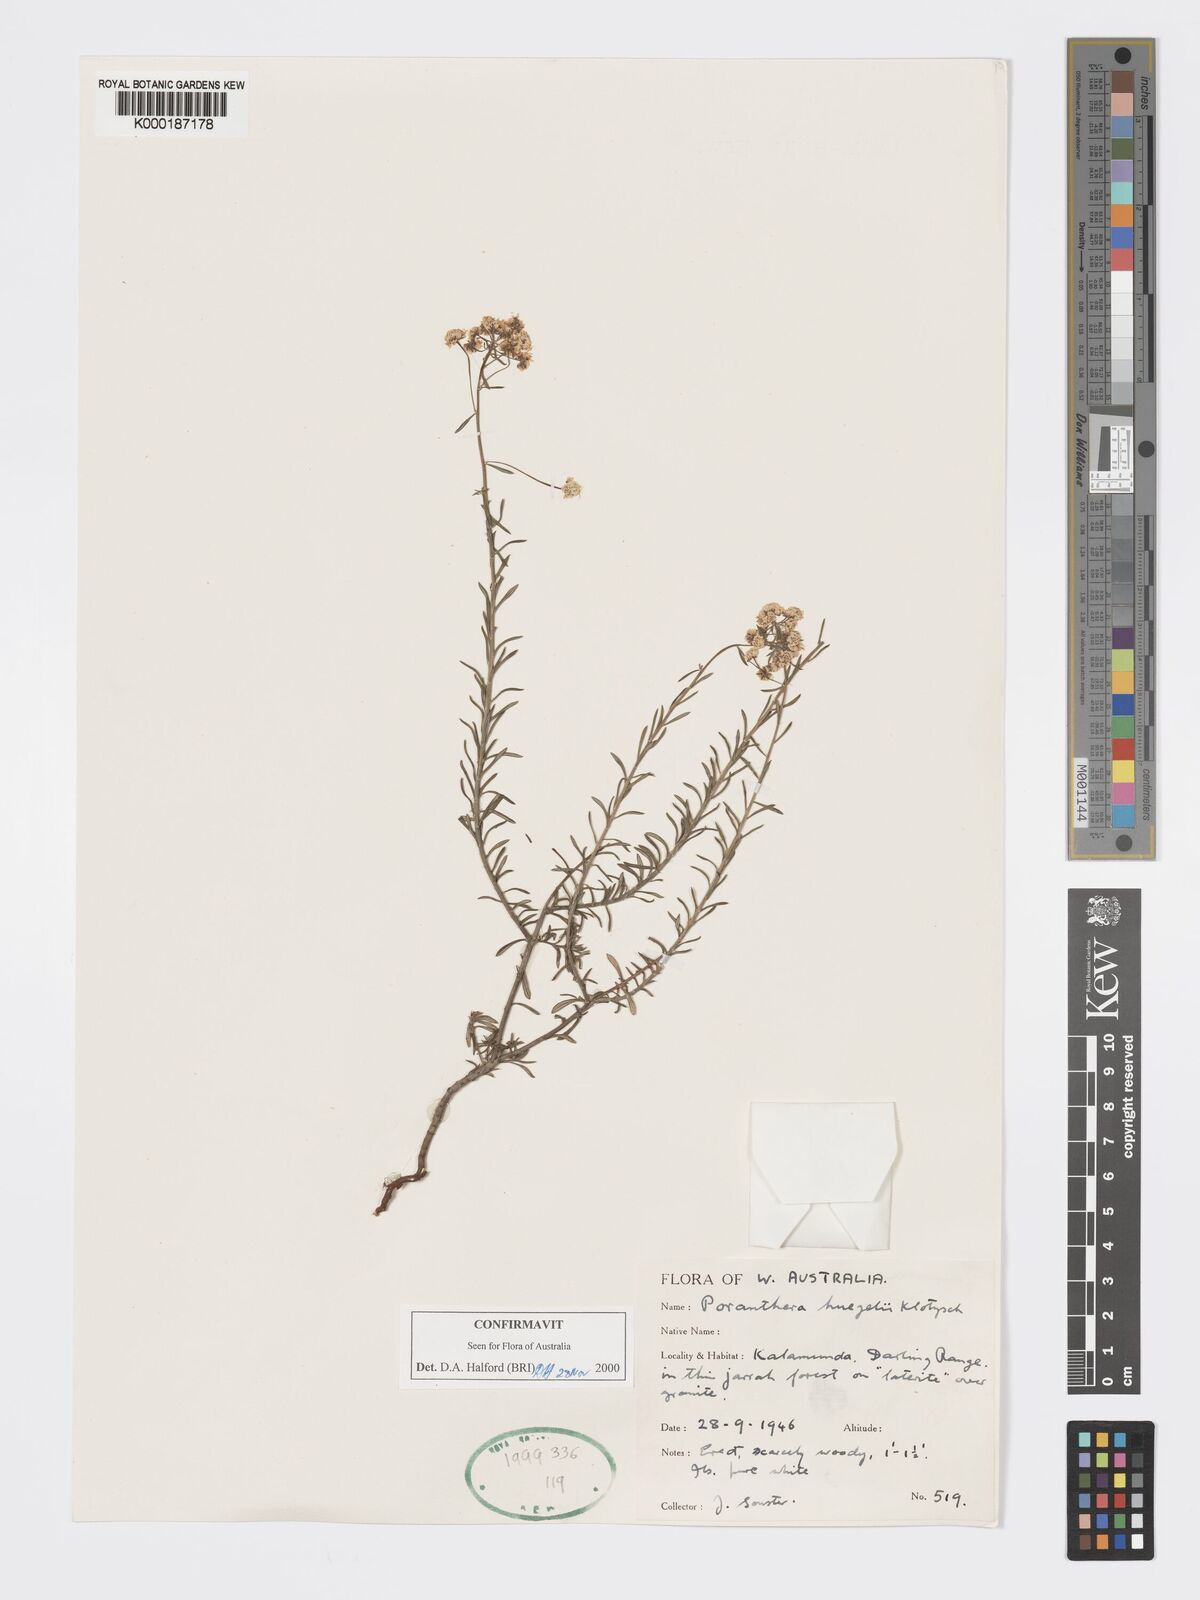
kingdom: Plantae
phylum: Tracheophyta
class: Magnoliopsida
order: Malpighiales
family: Phyllanthaceae
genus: Poranthera
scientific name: Poranthera huegelii
